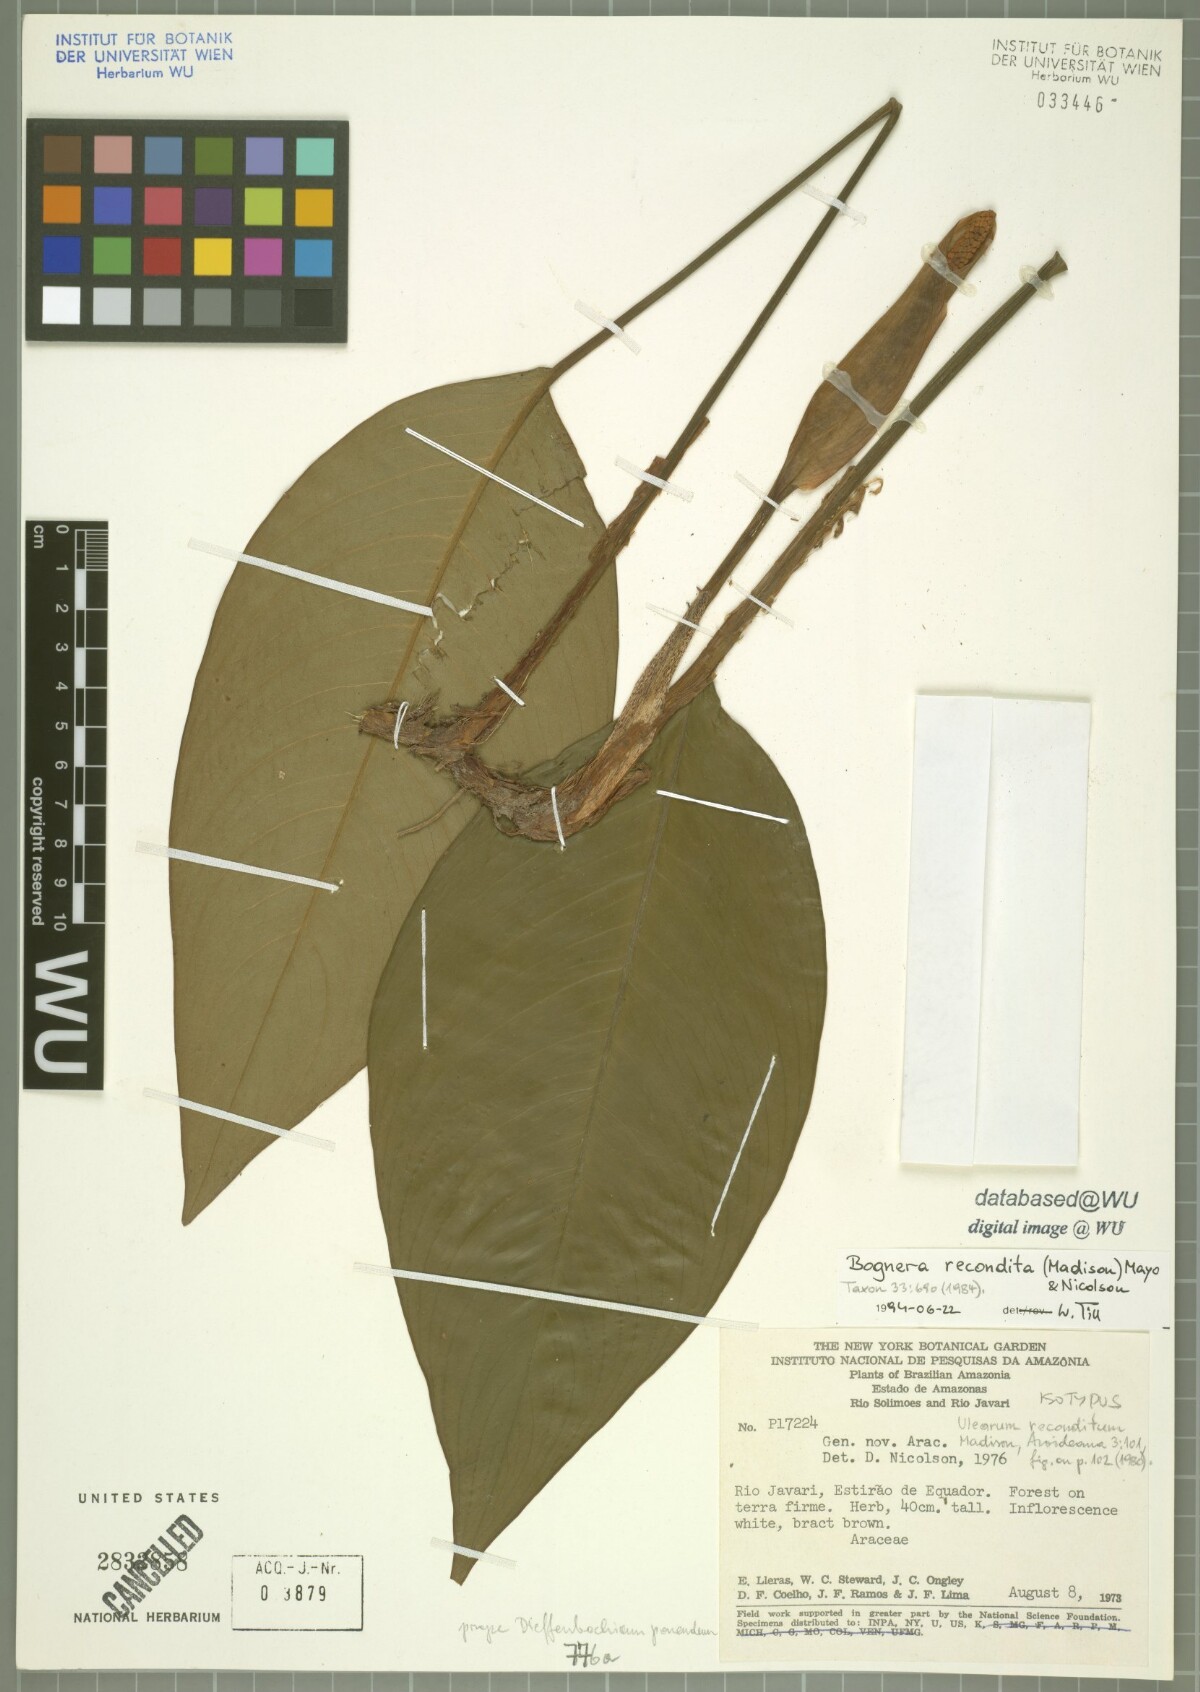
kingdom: Plantae
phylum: Tracheophyta
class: Liliopsida
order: Alismatales
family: Araceae
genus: Bognera
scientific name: Bognera recondita
